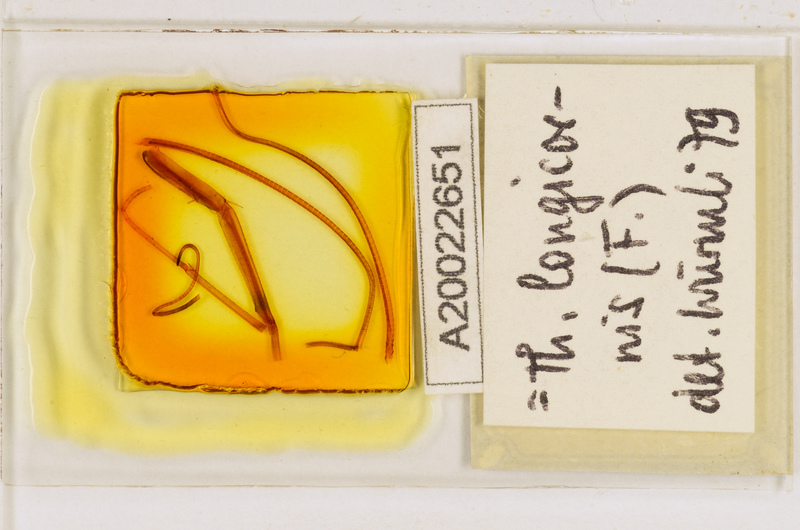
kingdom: Animalia
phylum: Arthropoda
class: Chilopoda
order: Scutigeromorpha
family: Scutigeridae
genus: Thereuopoda
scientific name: Thereuopoda longicornis
